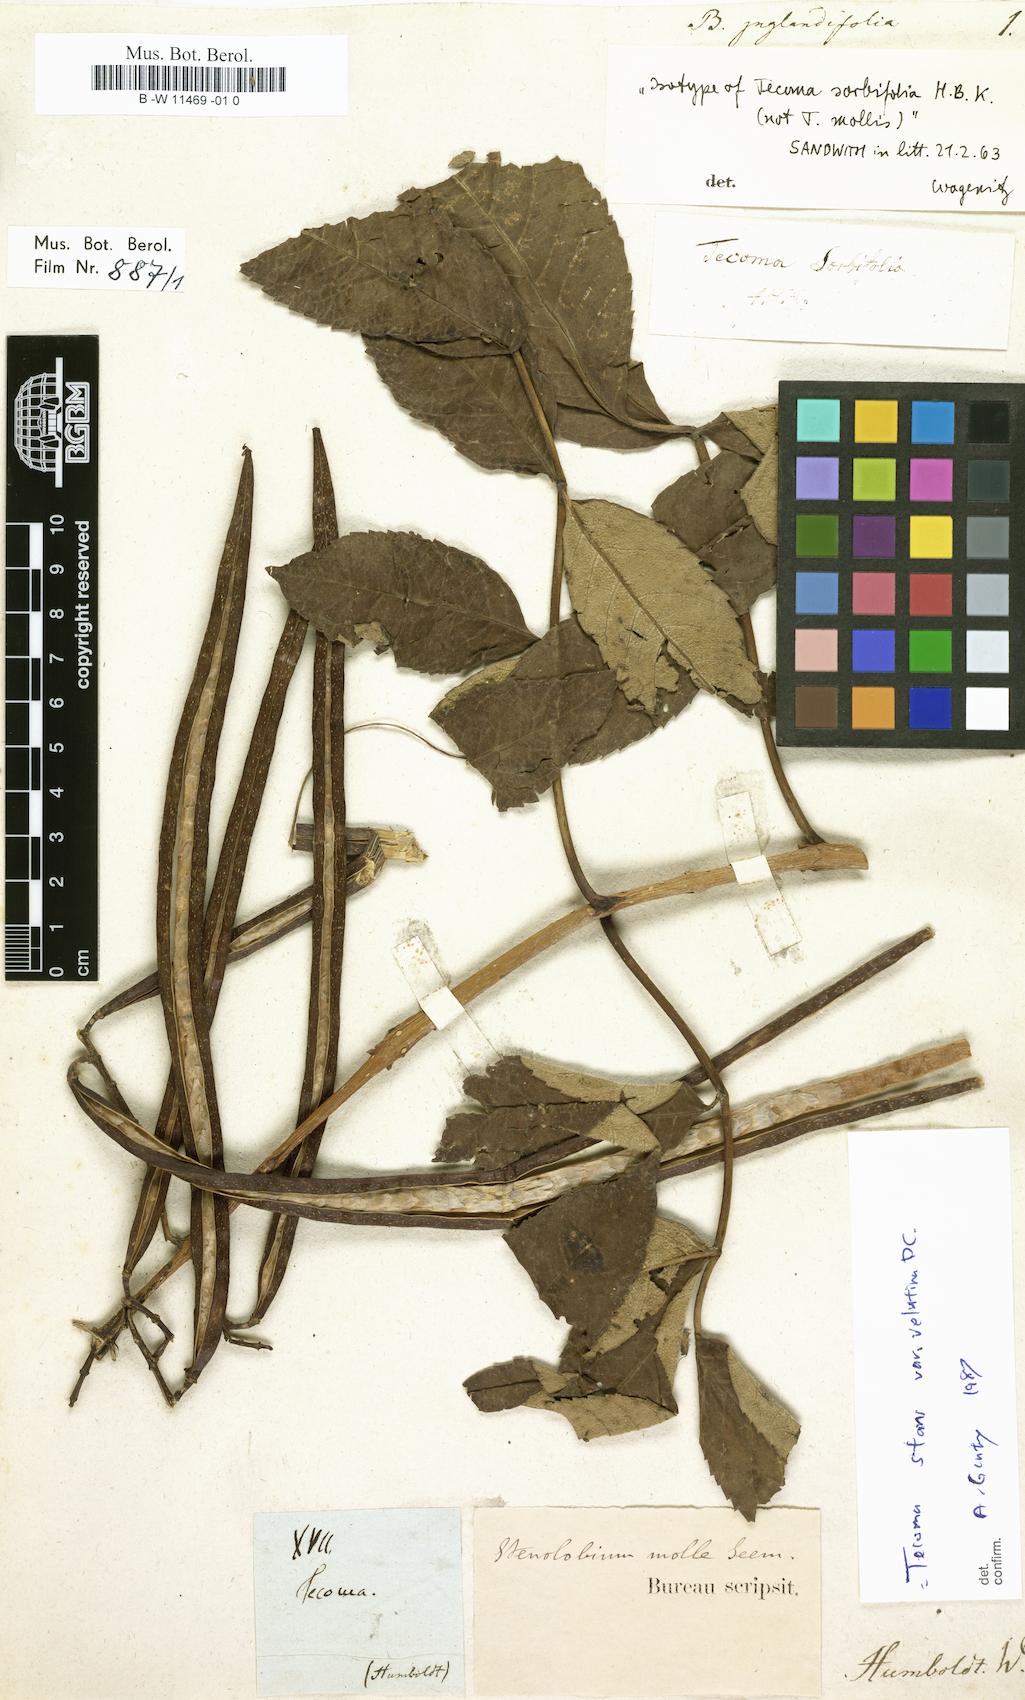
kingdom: Plantae
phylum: Tracheophyta
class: Magnoliopsida
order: Lamiales
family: Bignoniaceae
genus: Bignonia
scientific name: Bignonia
